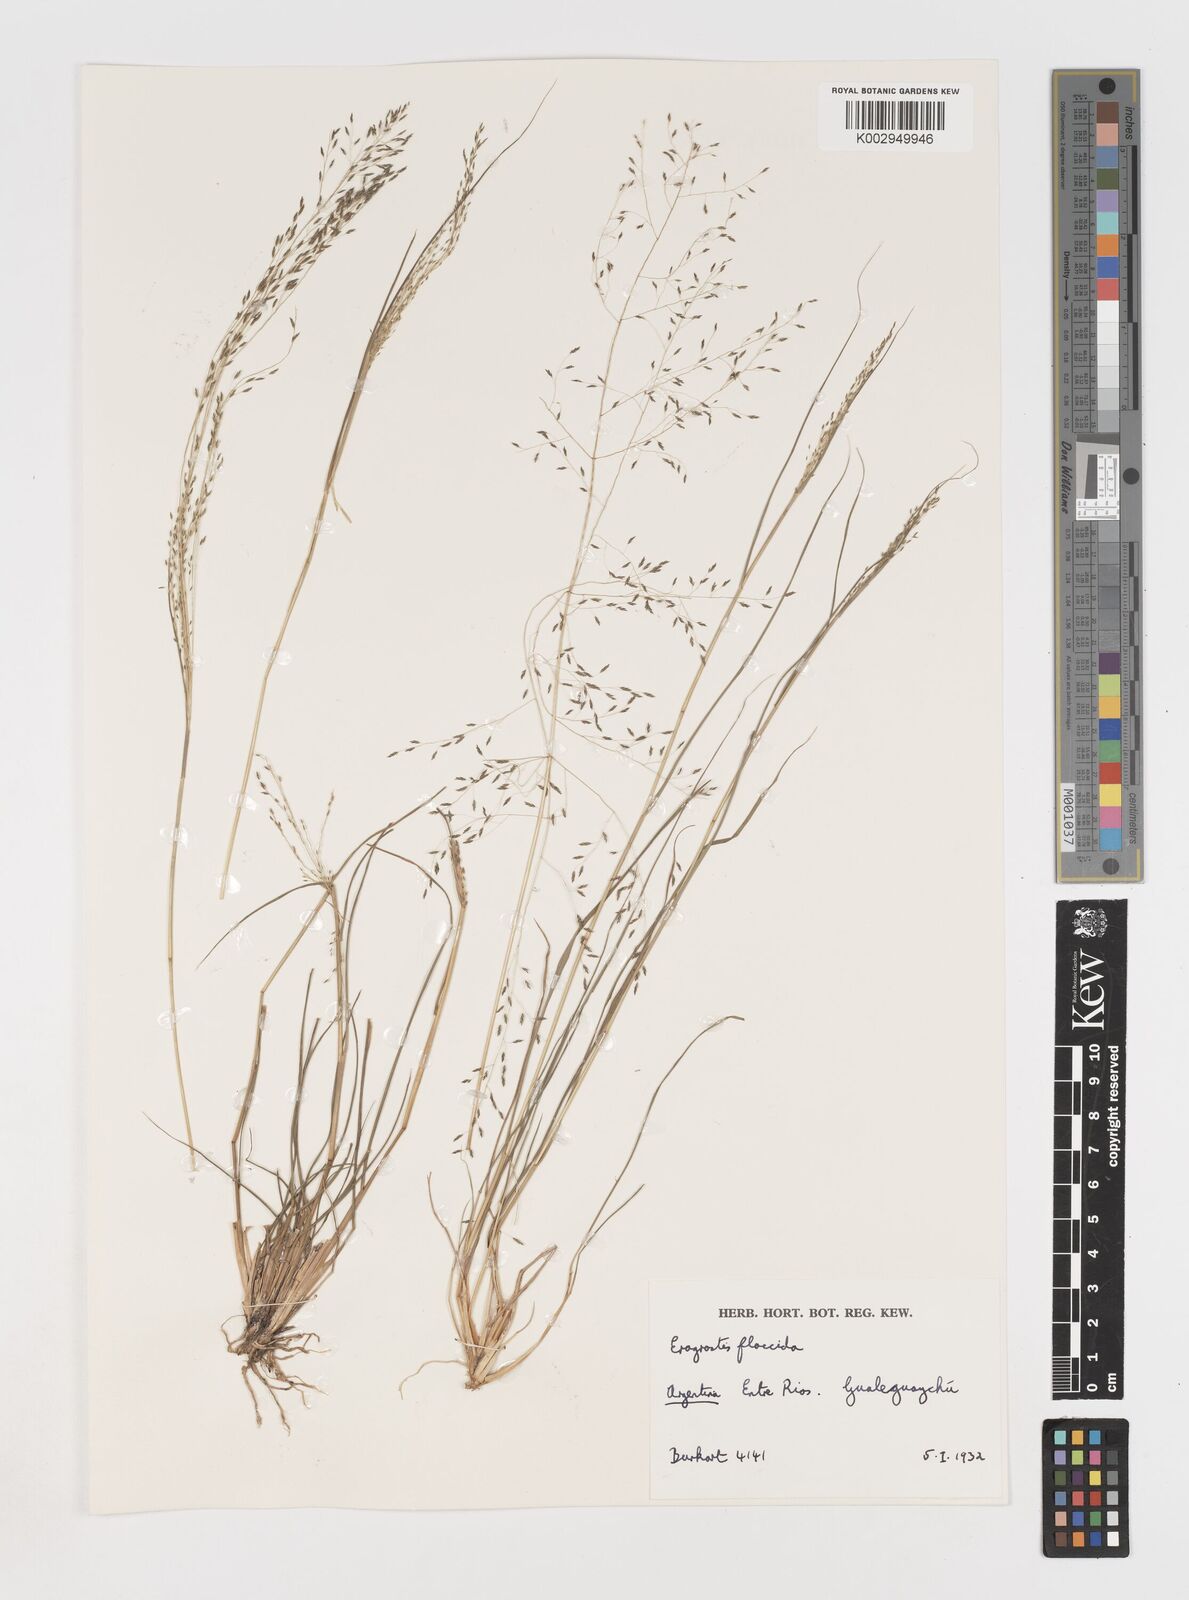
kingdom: Plantae
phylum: Tracheophyta
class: Liliopsida
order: Poales
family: Poaceae
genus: Eragrostis
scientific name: Eragrostis lugens
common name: Mourning love grass
